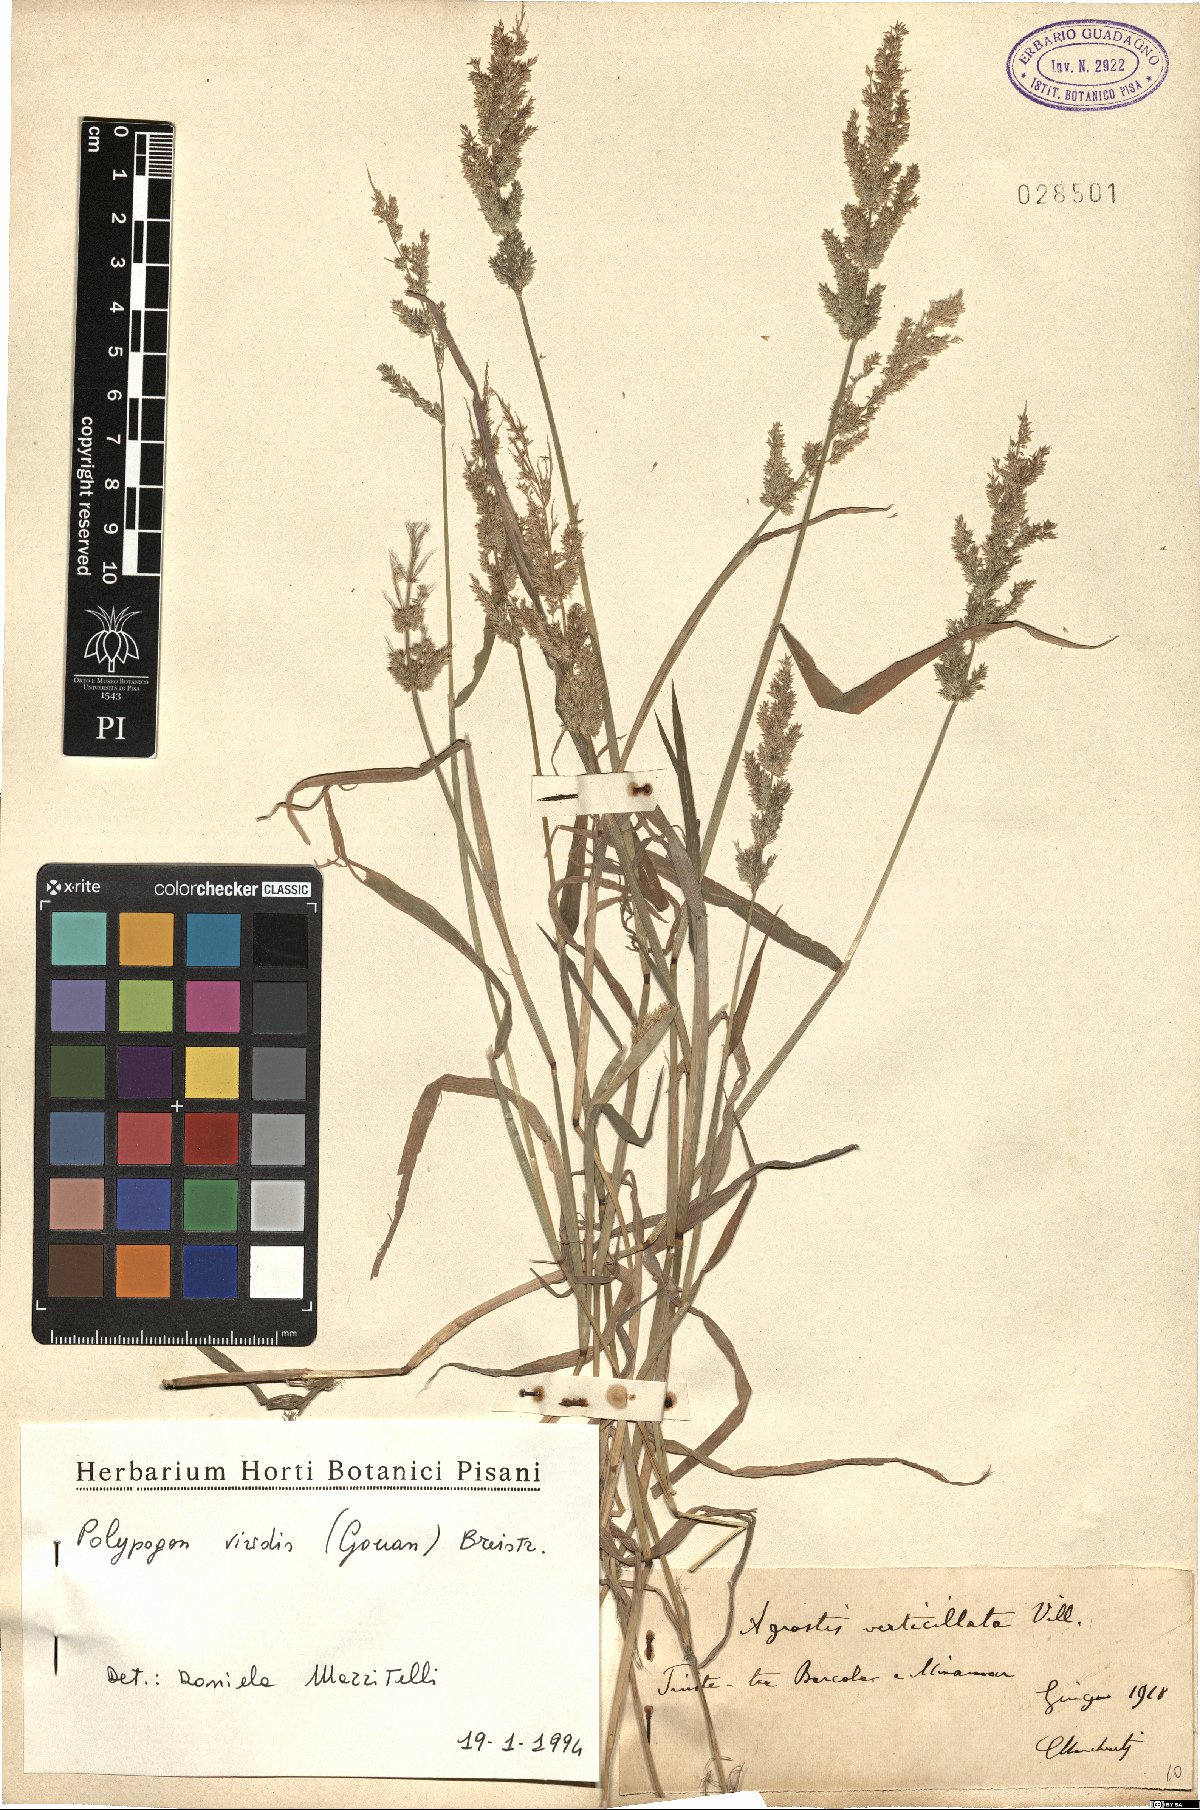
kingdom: Plantae
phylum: Tracheophyta
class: Liliopsida
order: Poales
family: Poaceae
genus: Polypogon
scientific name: Polypogon viridis
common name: Water bent
